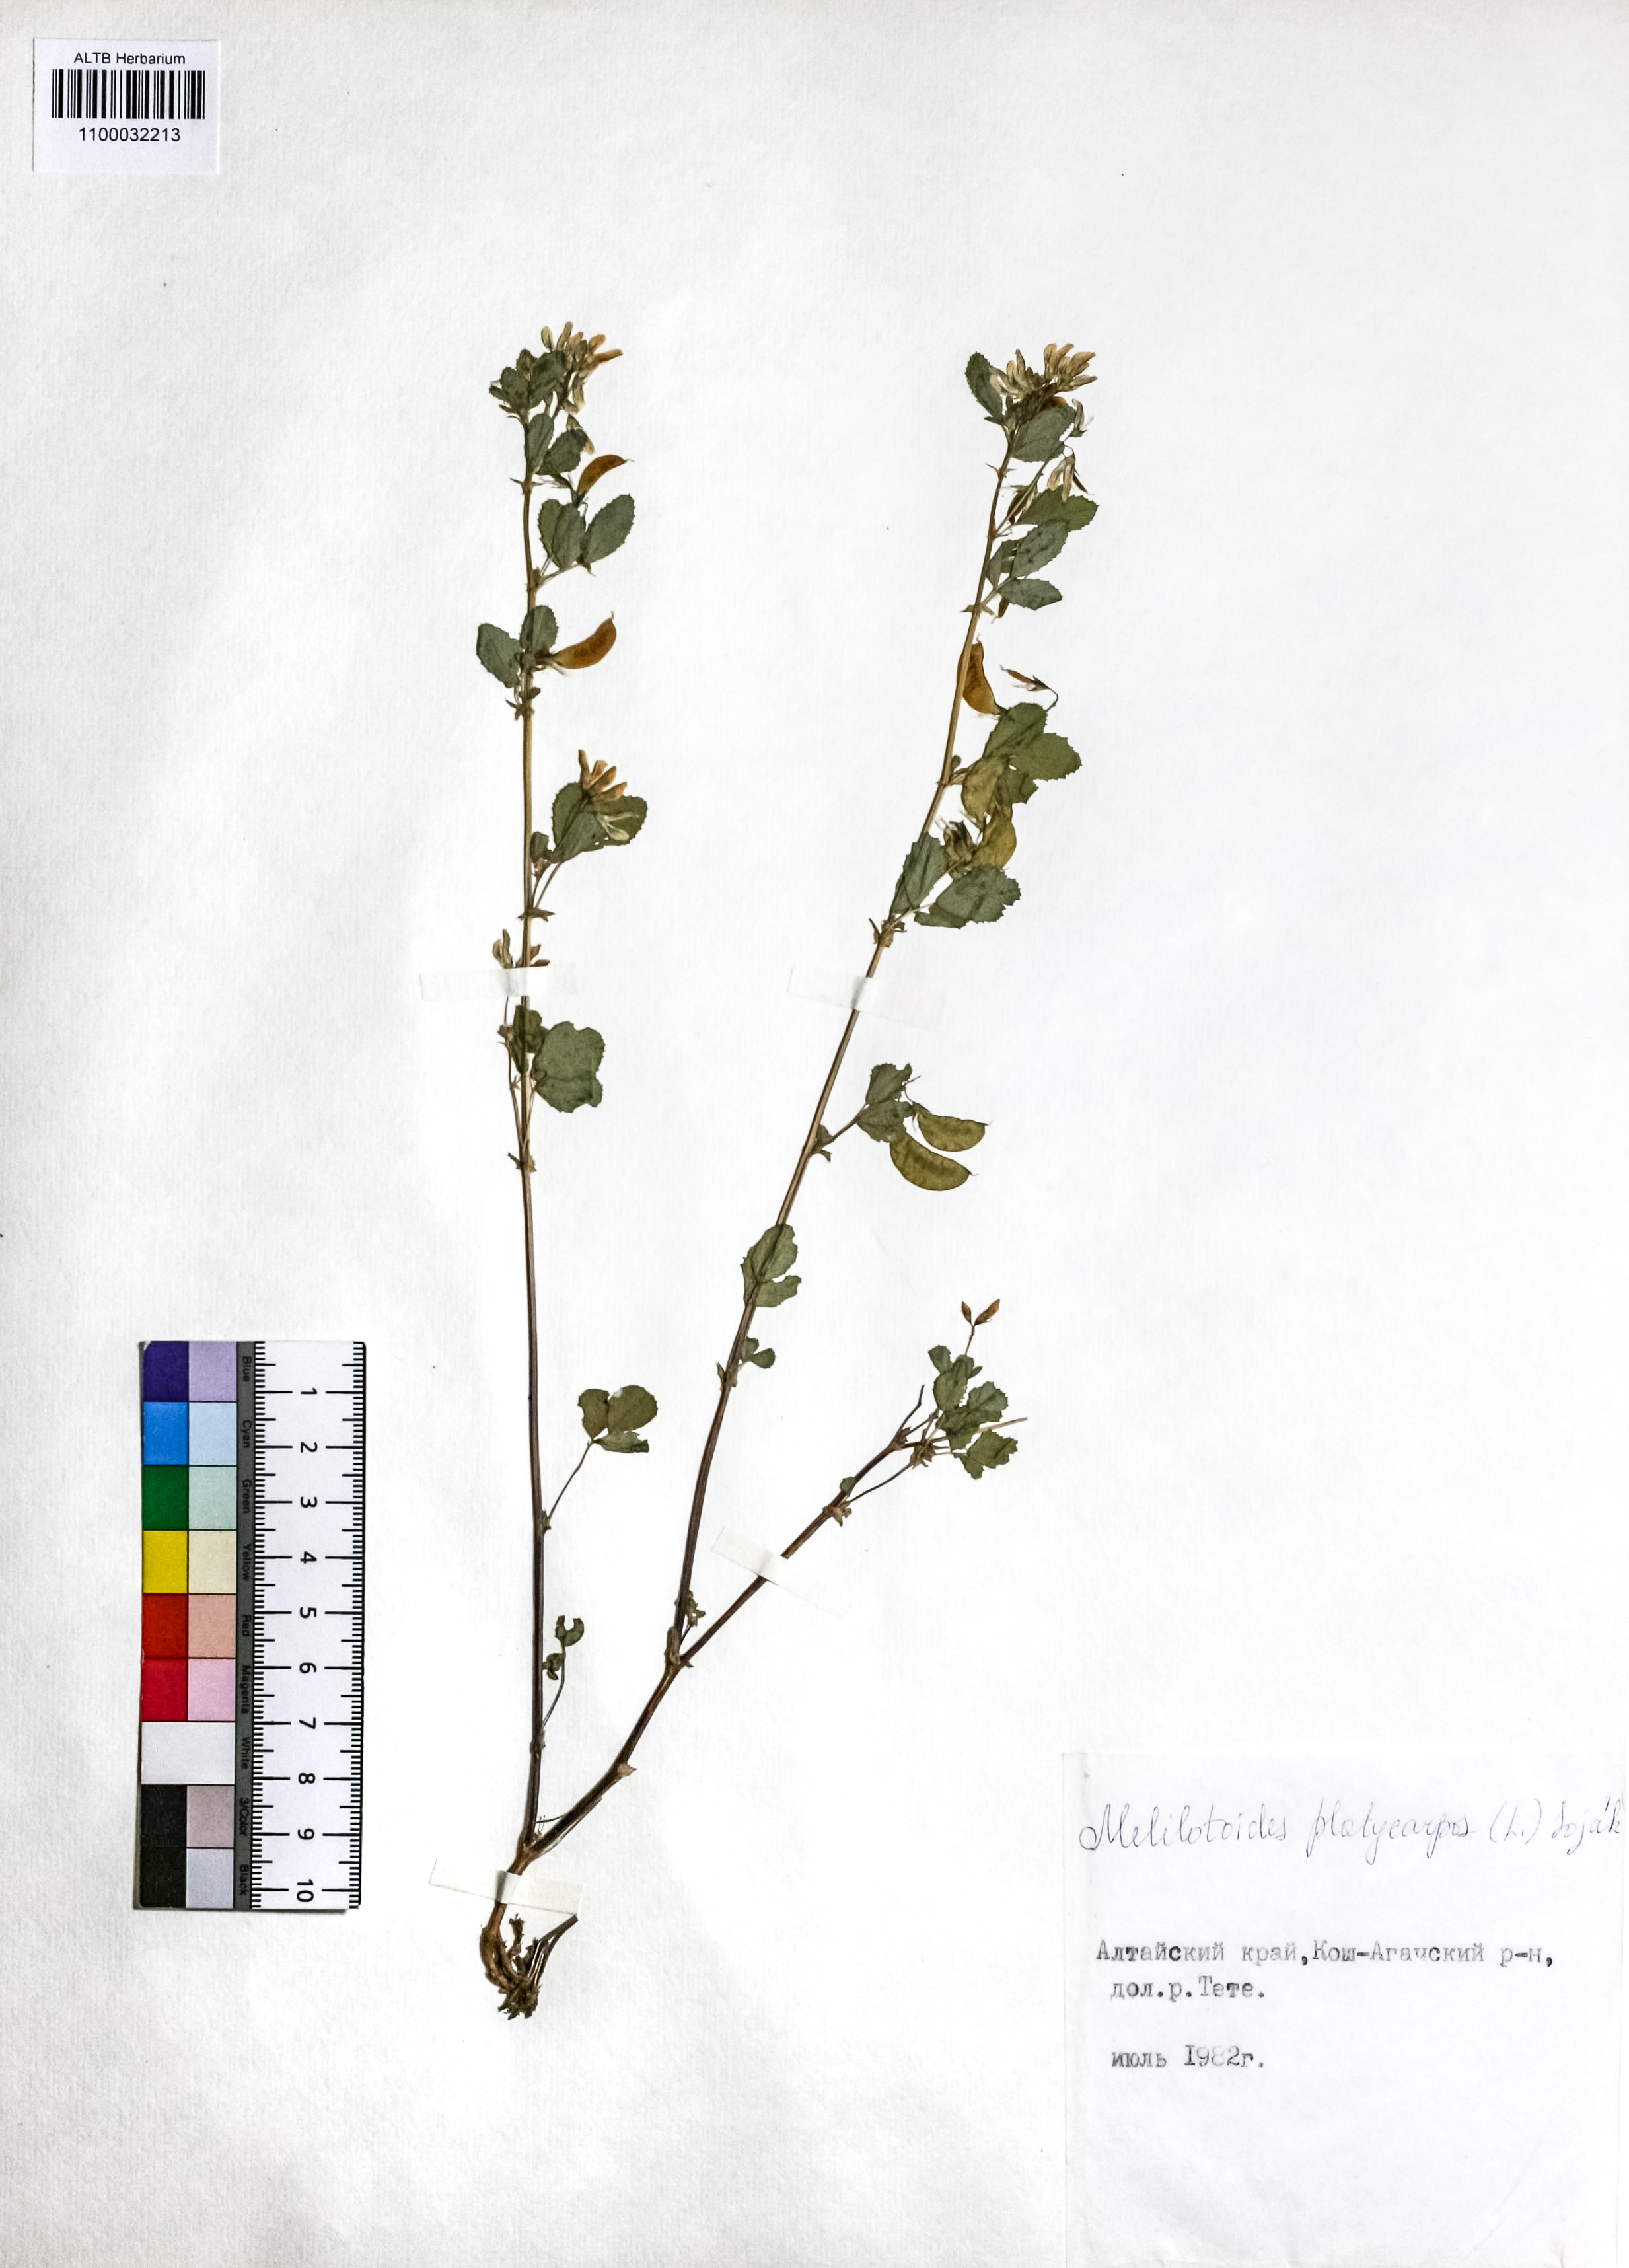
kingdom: Plantae
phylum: Tracheophyta
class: Magnoliopsida
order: Fabales
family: Fabaceae
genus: Medicago
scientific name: Medicago platycarpos
